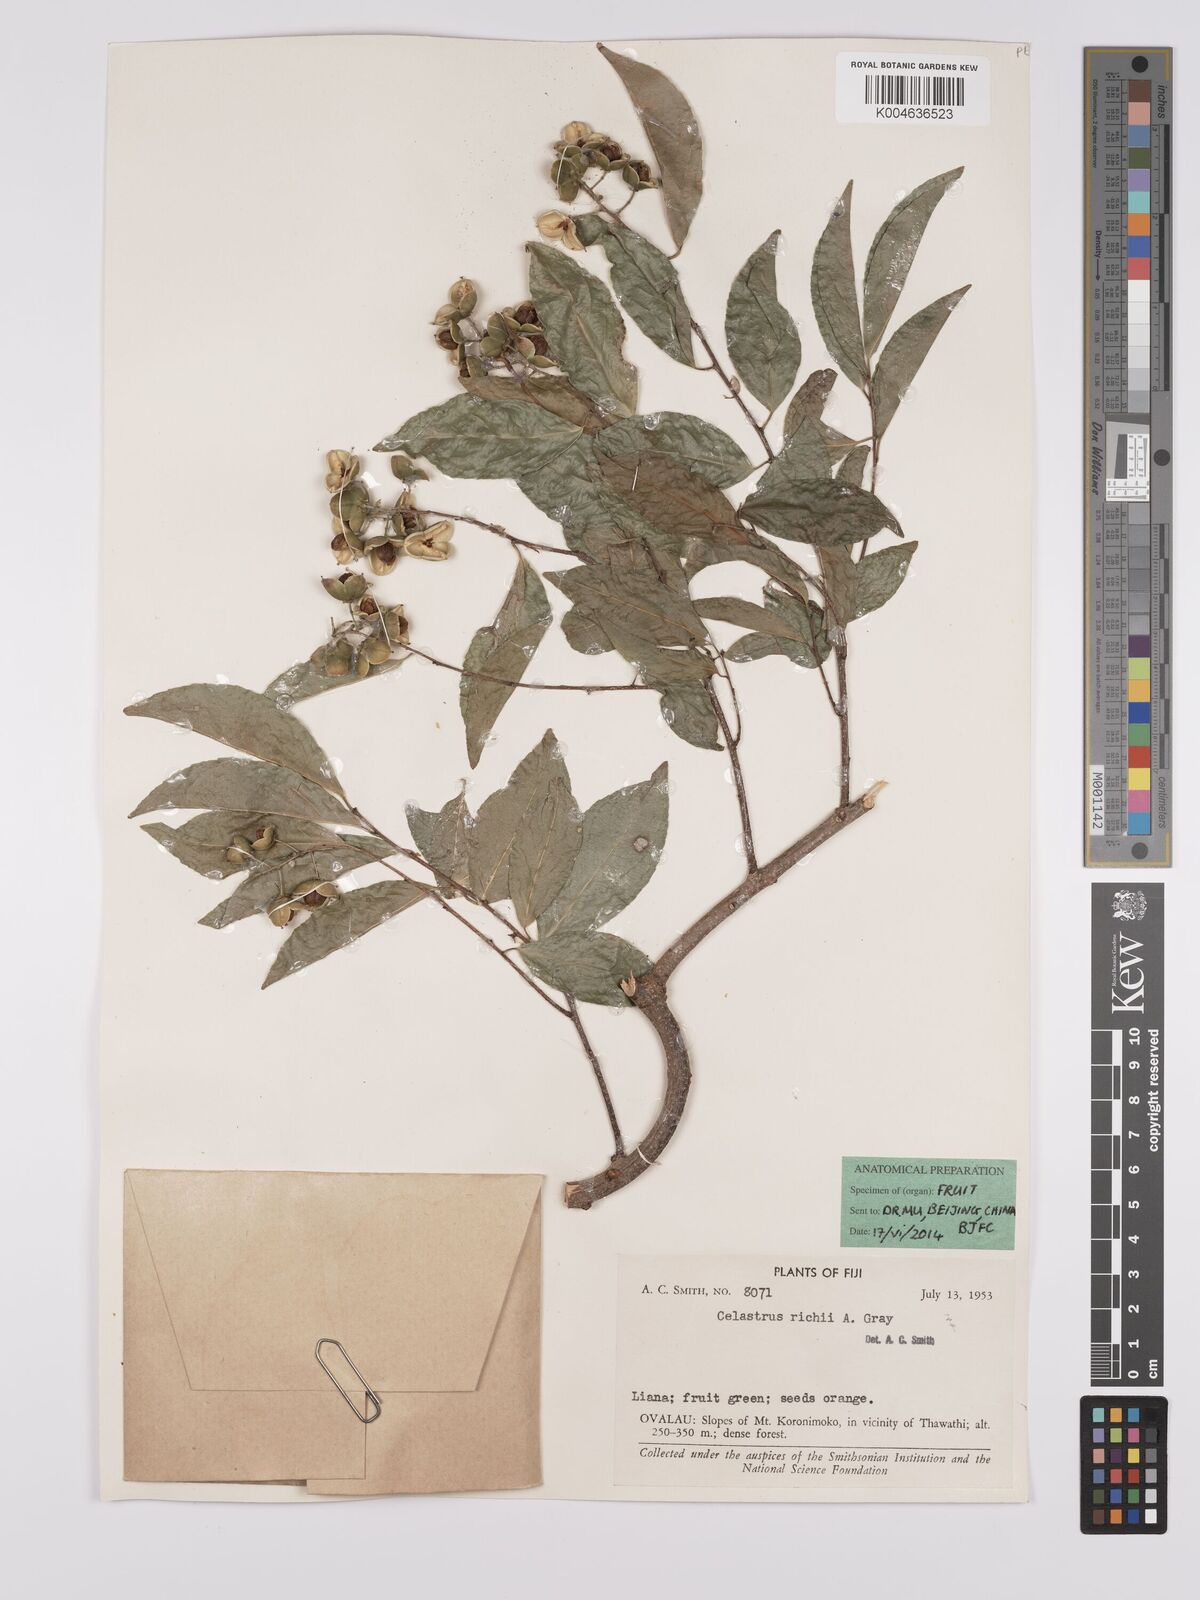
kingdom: Plantae
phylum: Tracheophyta
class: Magnoliopsida
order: Celastrales
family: Celastraceae
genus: Celastrus
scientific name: Celastrus richii
